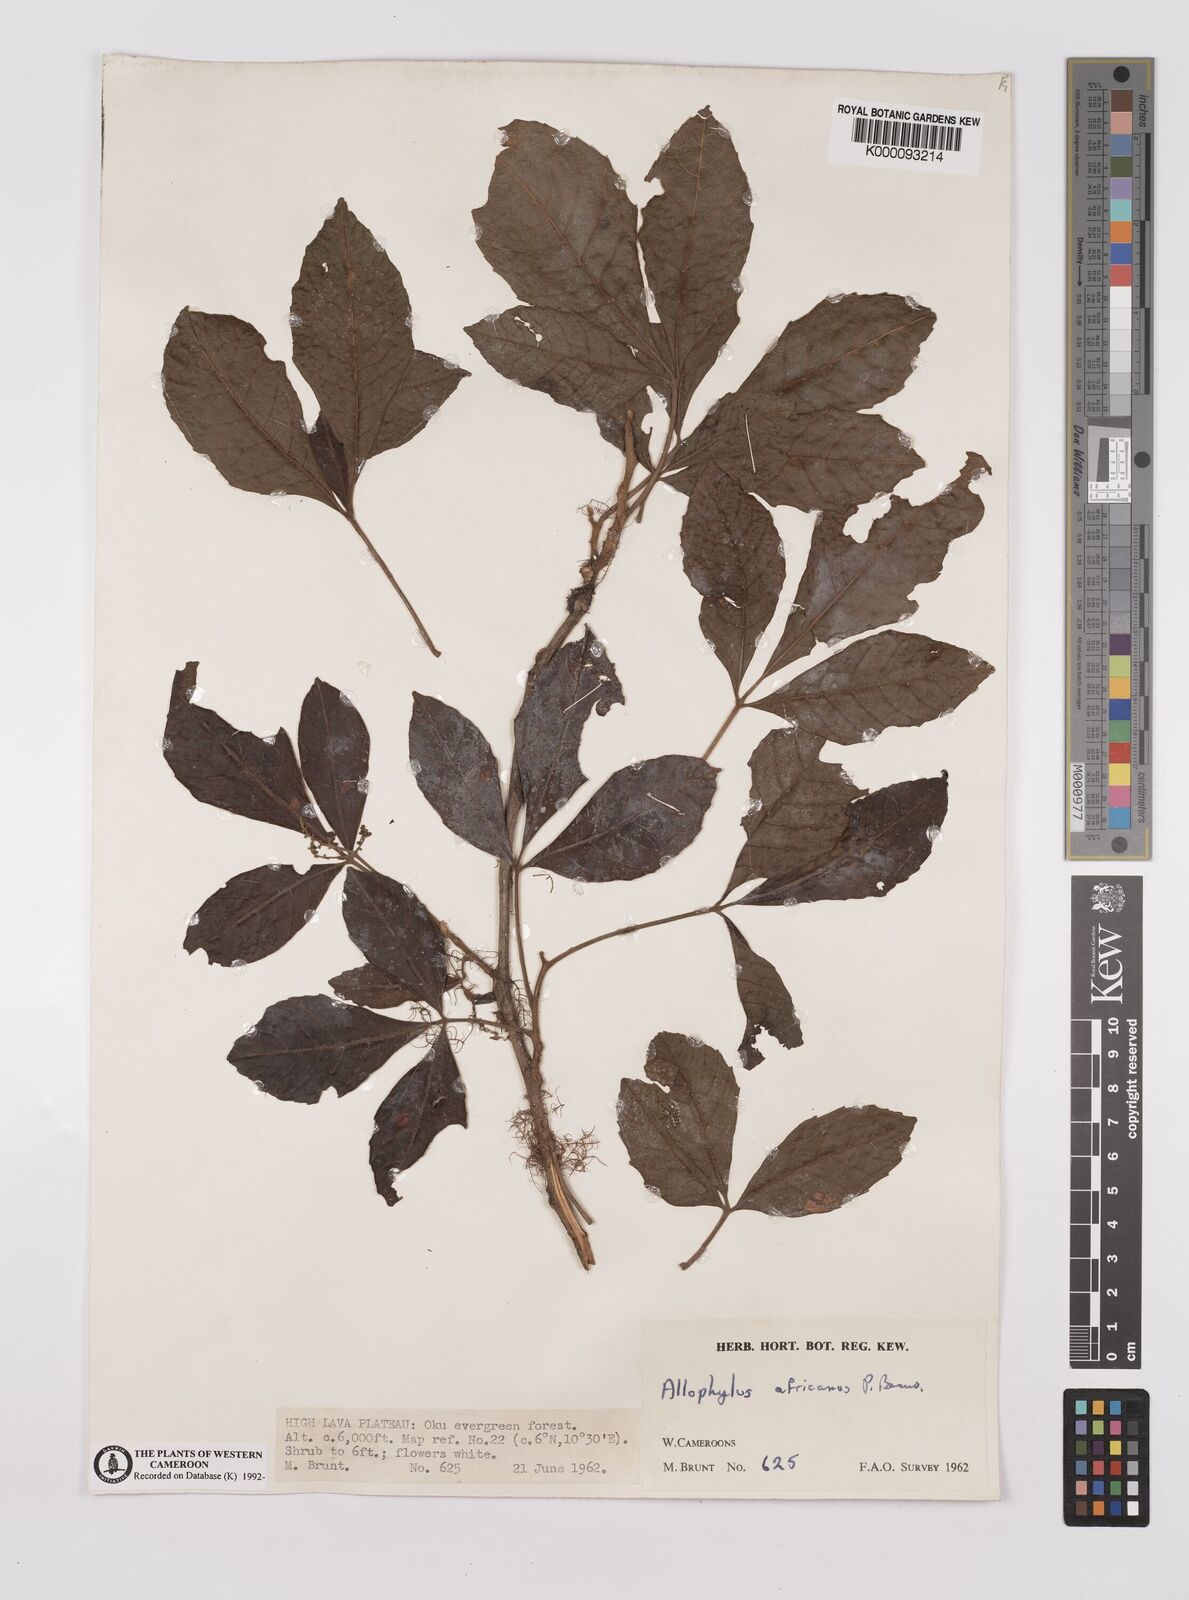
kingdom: Plantae
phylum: Tracheophyta
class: Magnoliopsida
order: Sapindales
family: Sapindaceae
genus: Allophylus
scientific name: Allophylus africanus
